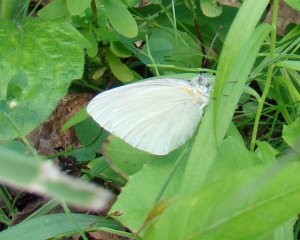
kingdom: Animalia
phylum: Arthropoda
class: Insecta
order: Lepidoptera
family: Pieridae
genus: Pieris
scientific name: Pieris oleracea
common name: Mustard White
